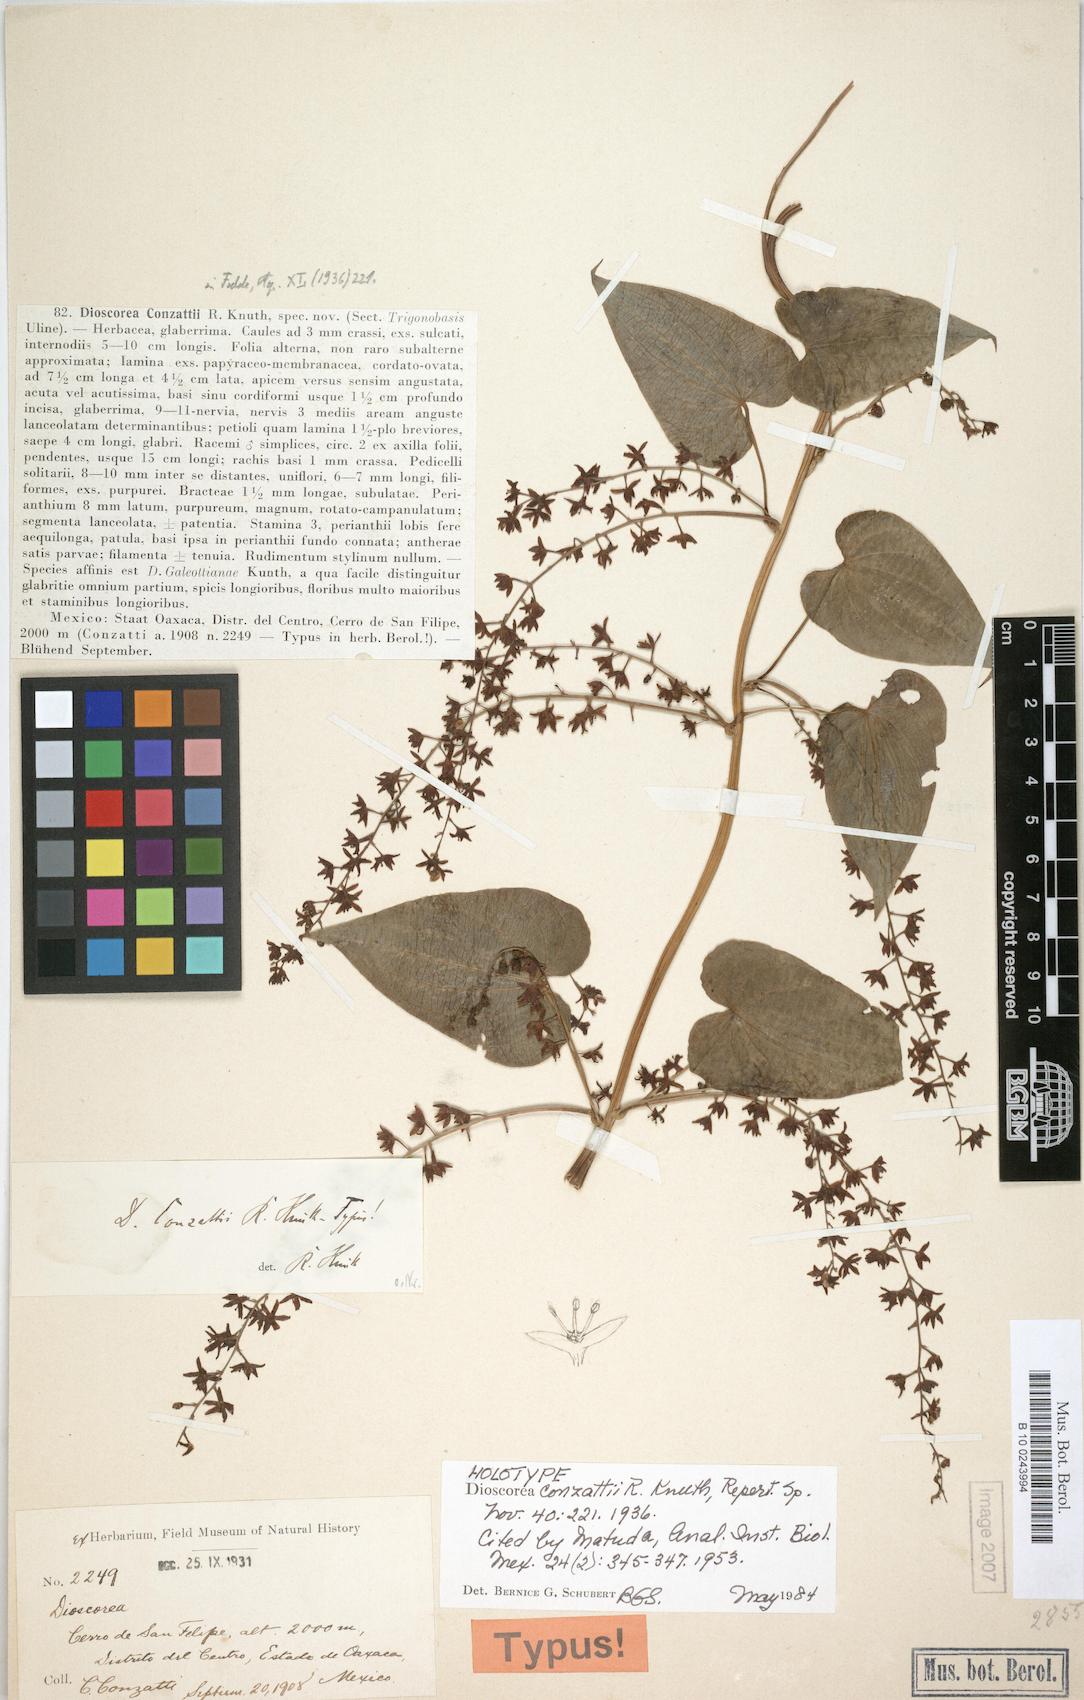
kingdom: Plantae
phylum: Tracheophyta
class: Liliopsida
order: Dioscoreales
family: Dioscoreaceae
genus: Dioscorea
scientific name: Dioscorea conzattii
